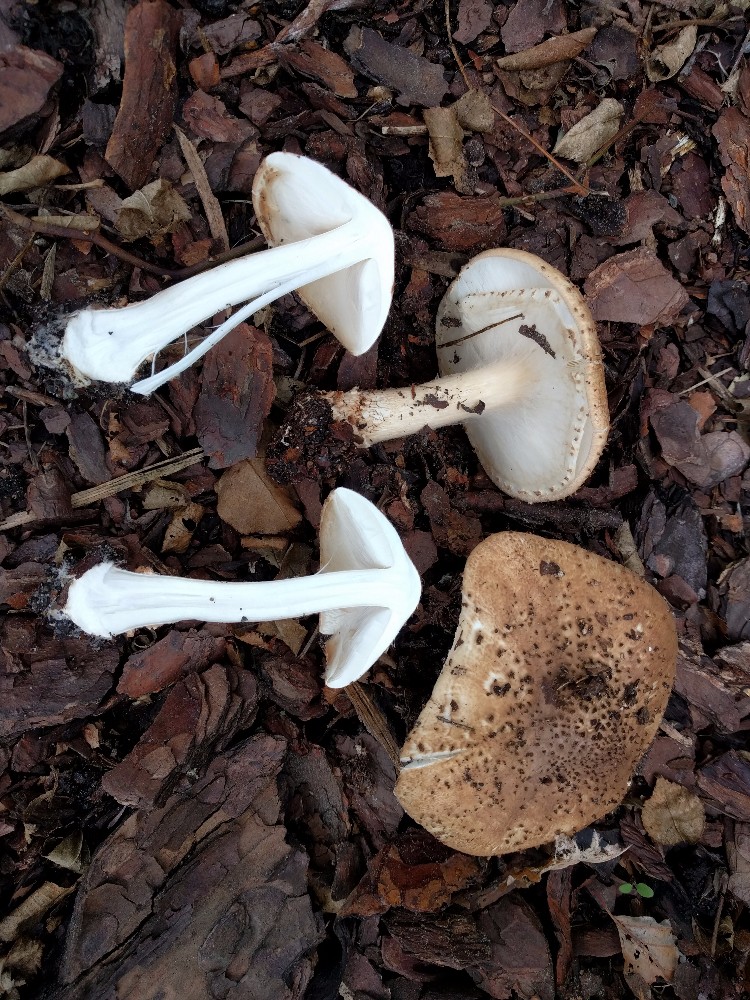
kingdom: Fungi
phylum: Basidiomycota
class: Agaricomycetes
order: Agaricales
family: Agaricaceae
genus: Echinoderma
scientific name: Echinoderma asperum
